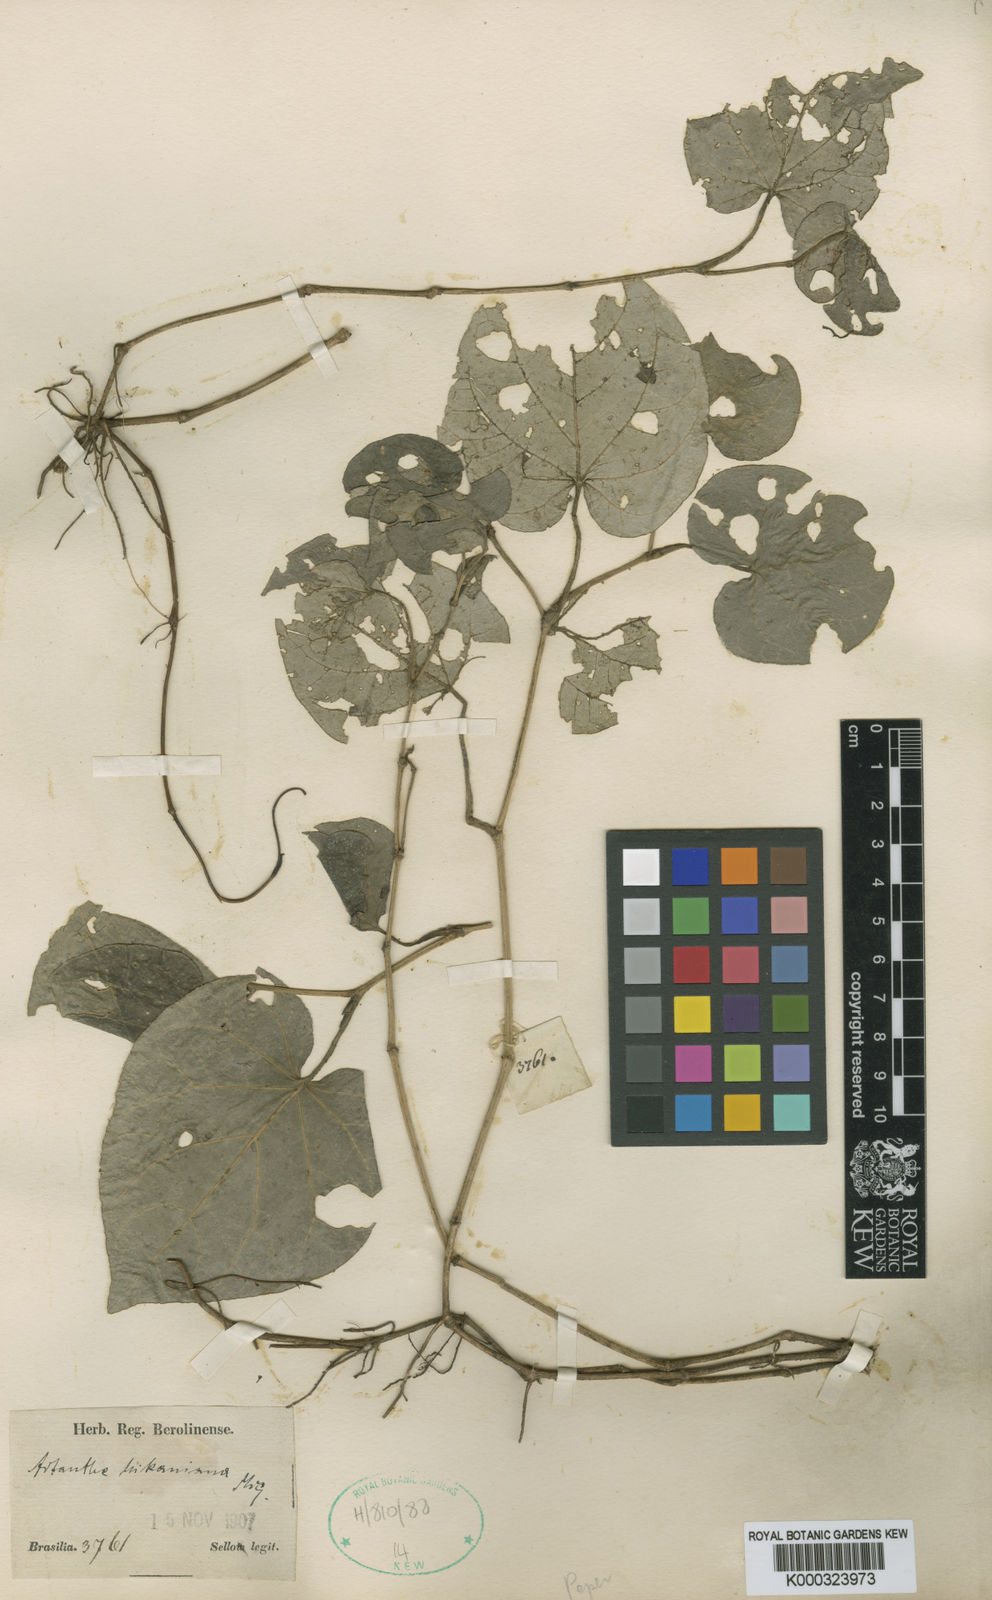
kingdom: Plantae
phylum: Tracheophyta
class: Magnoliopsida
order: Piperales
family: Piperaceae
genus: Piper
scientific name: Piper mikanianum
